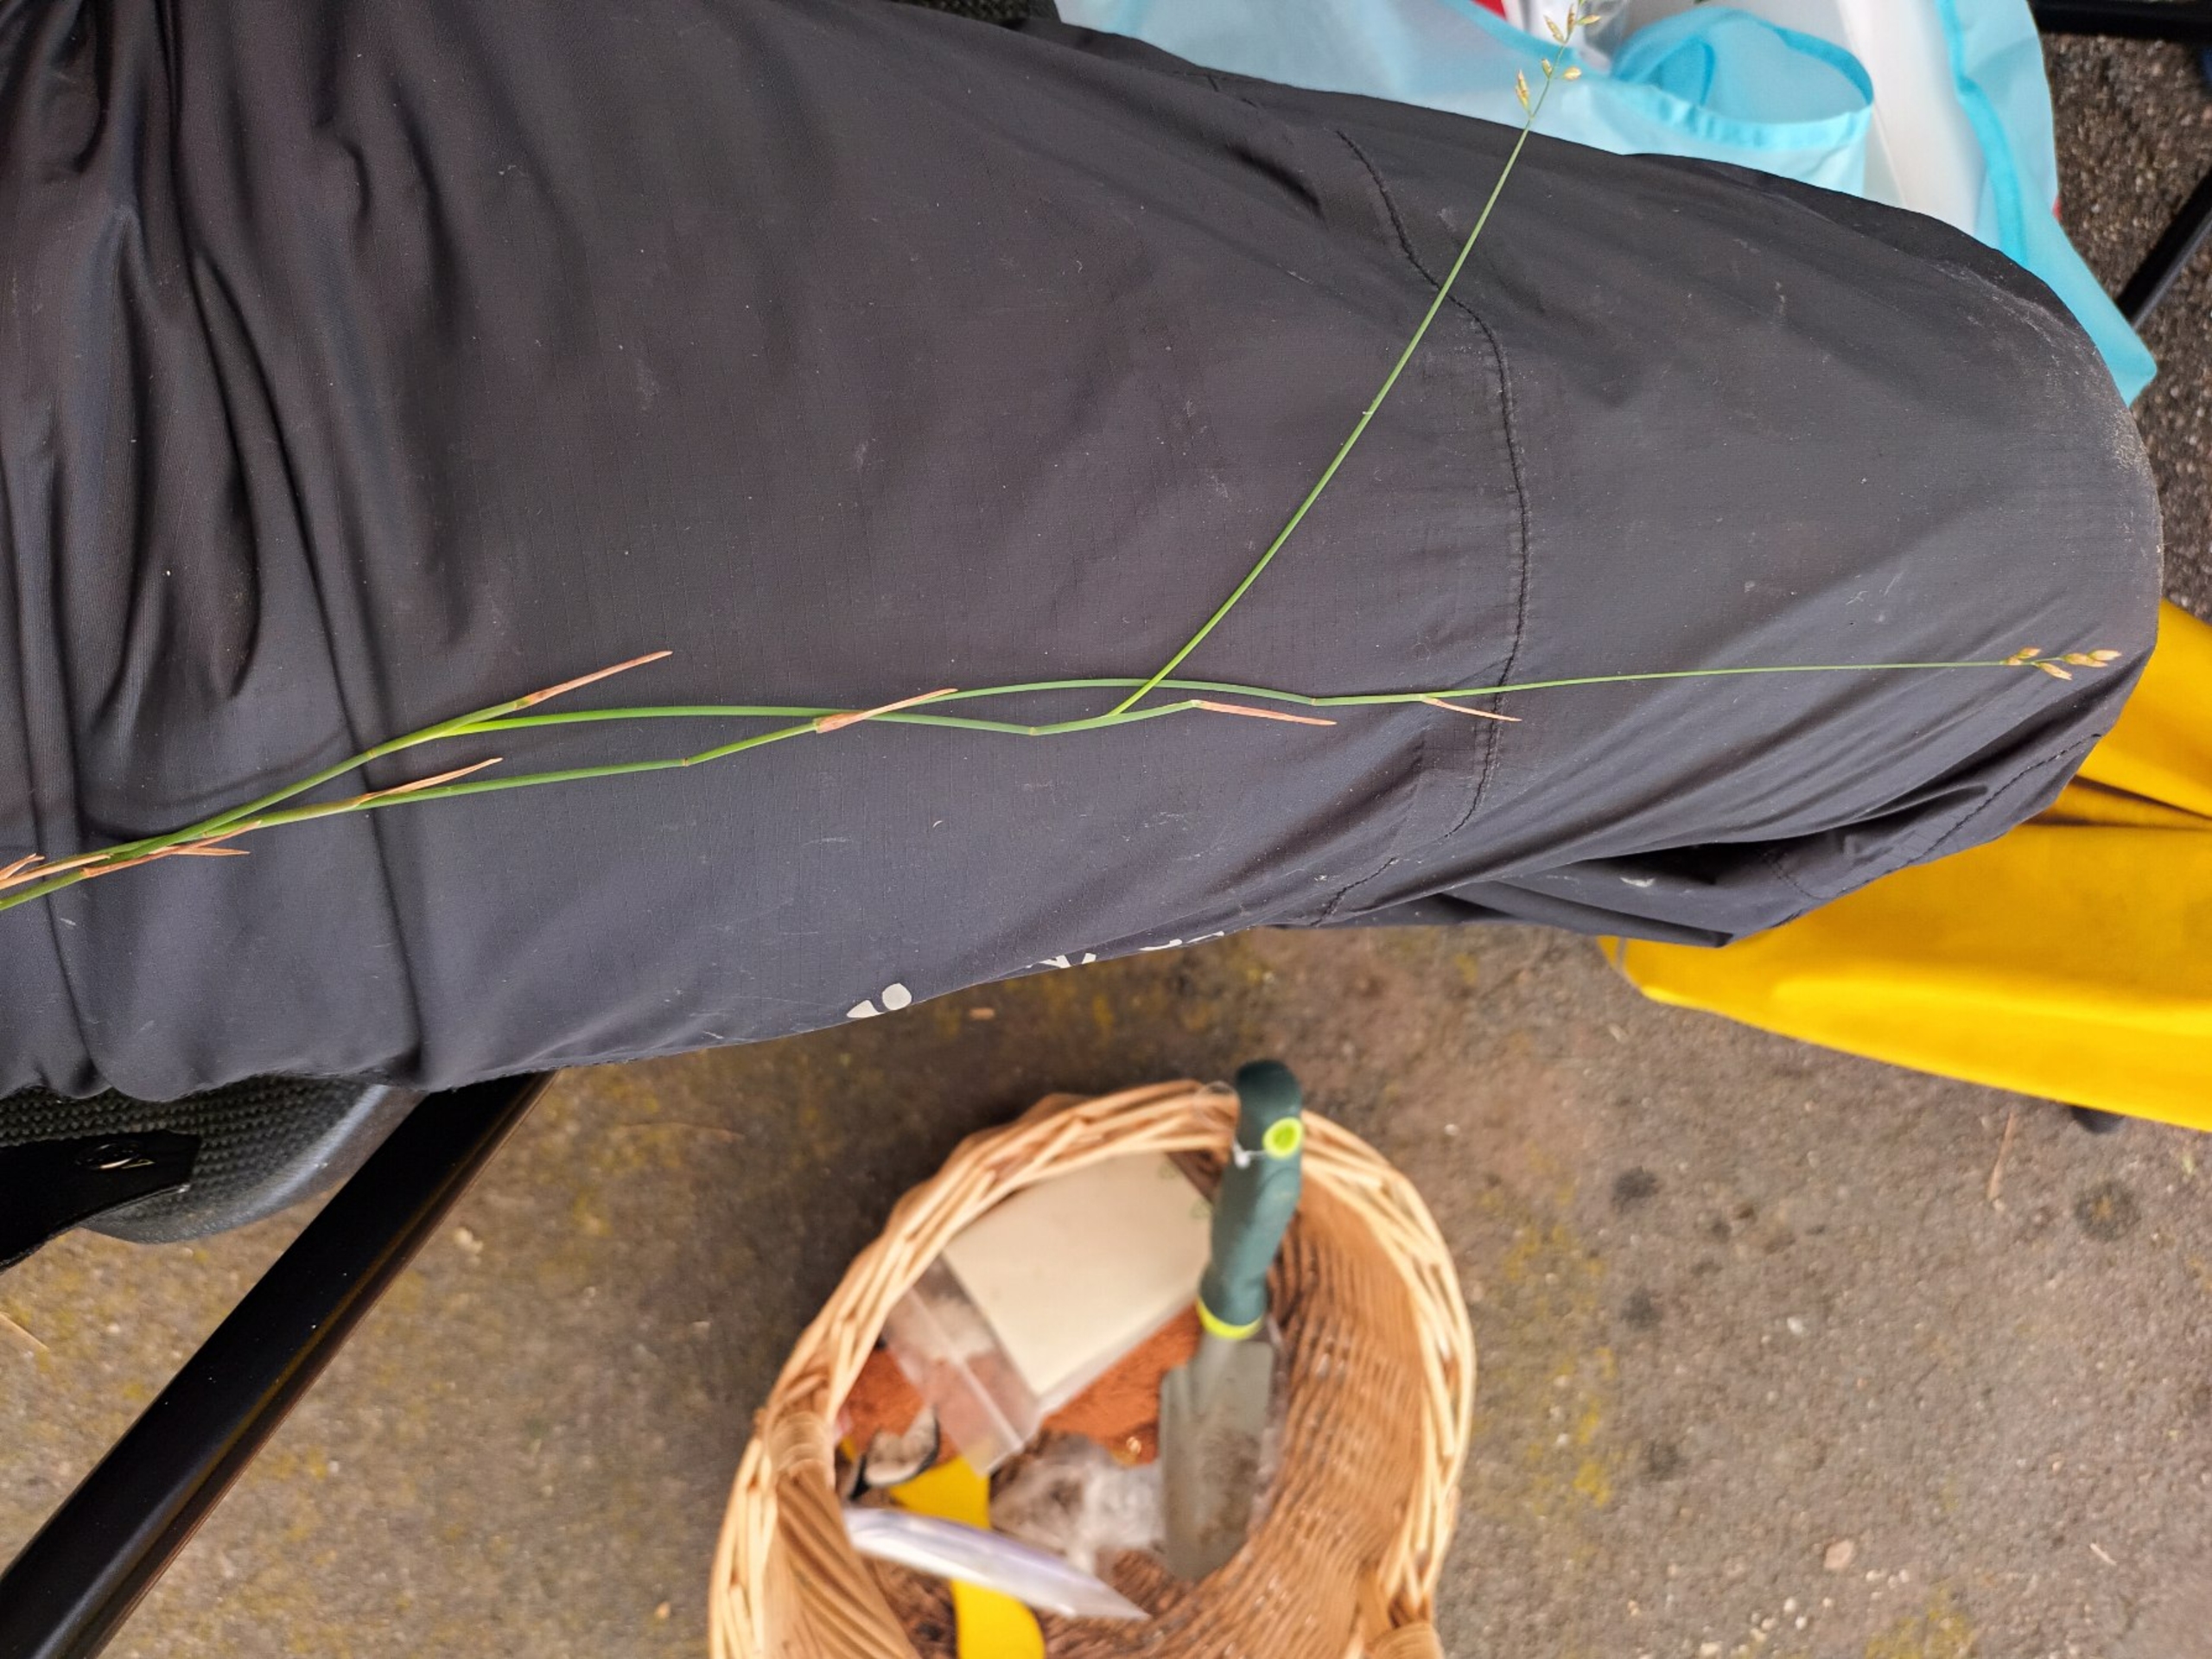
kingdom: Plantae
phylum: Tracheophyta
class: Liliopsida
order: Poales
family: Poaceae
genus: Poa
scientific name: Poa compressa
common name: Fladstrået rapgræs (underart)
